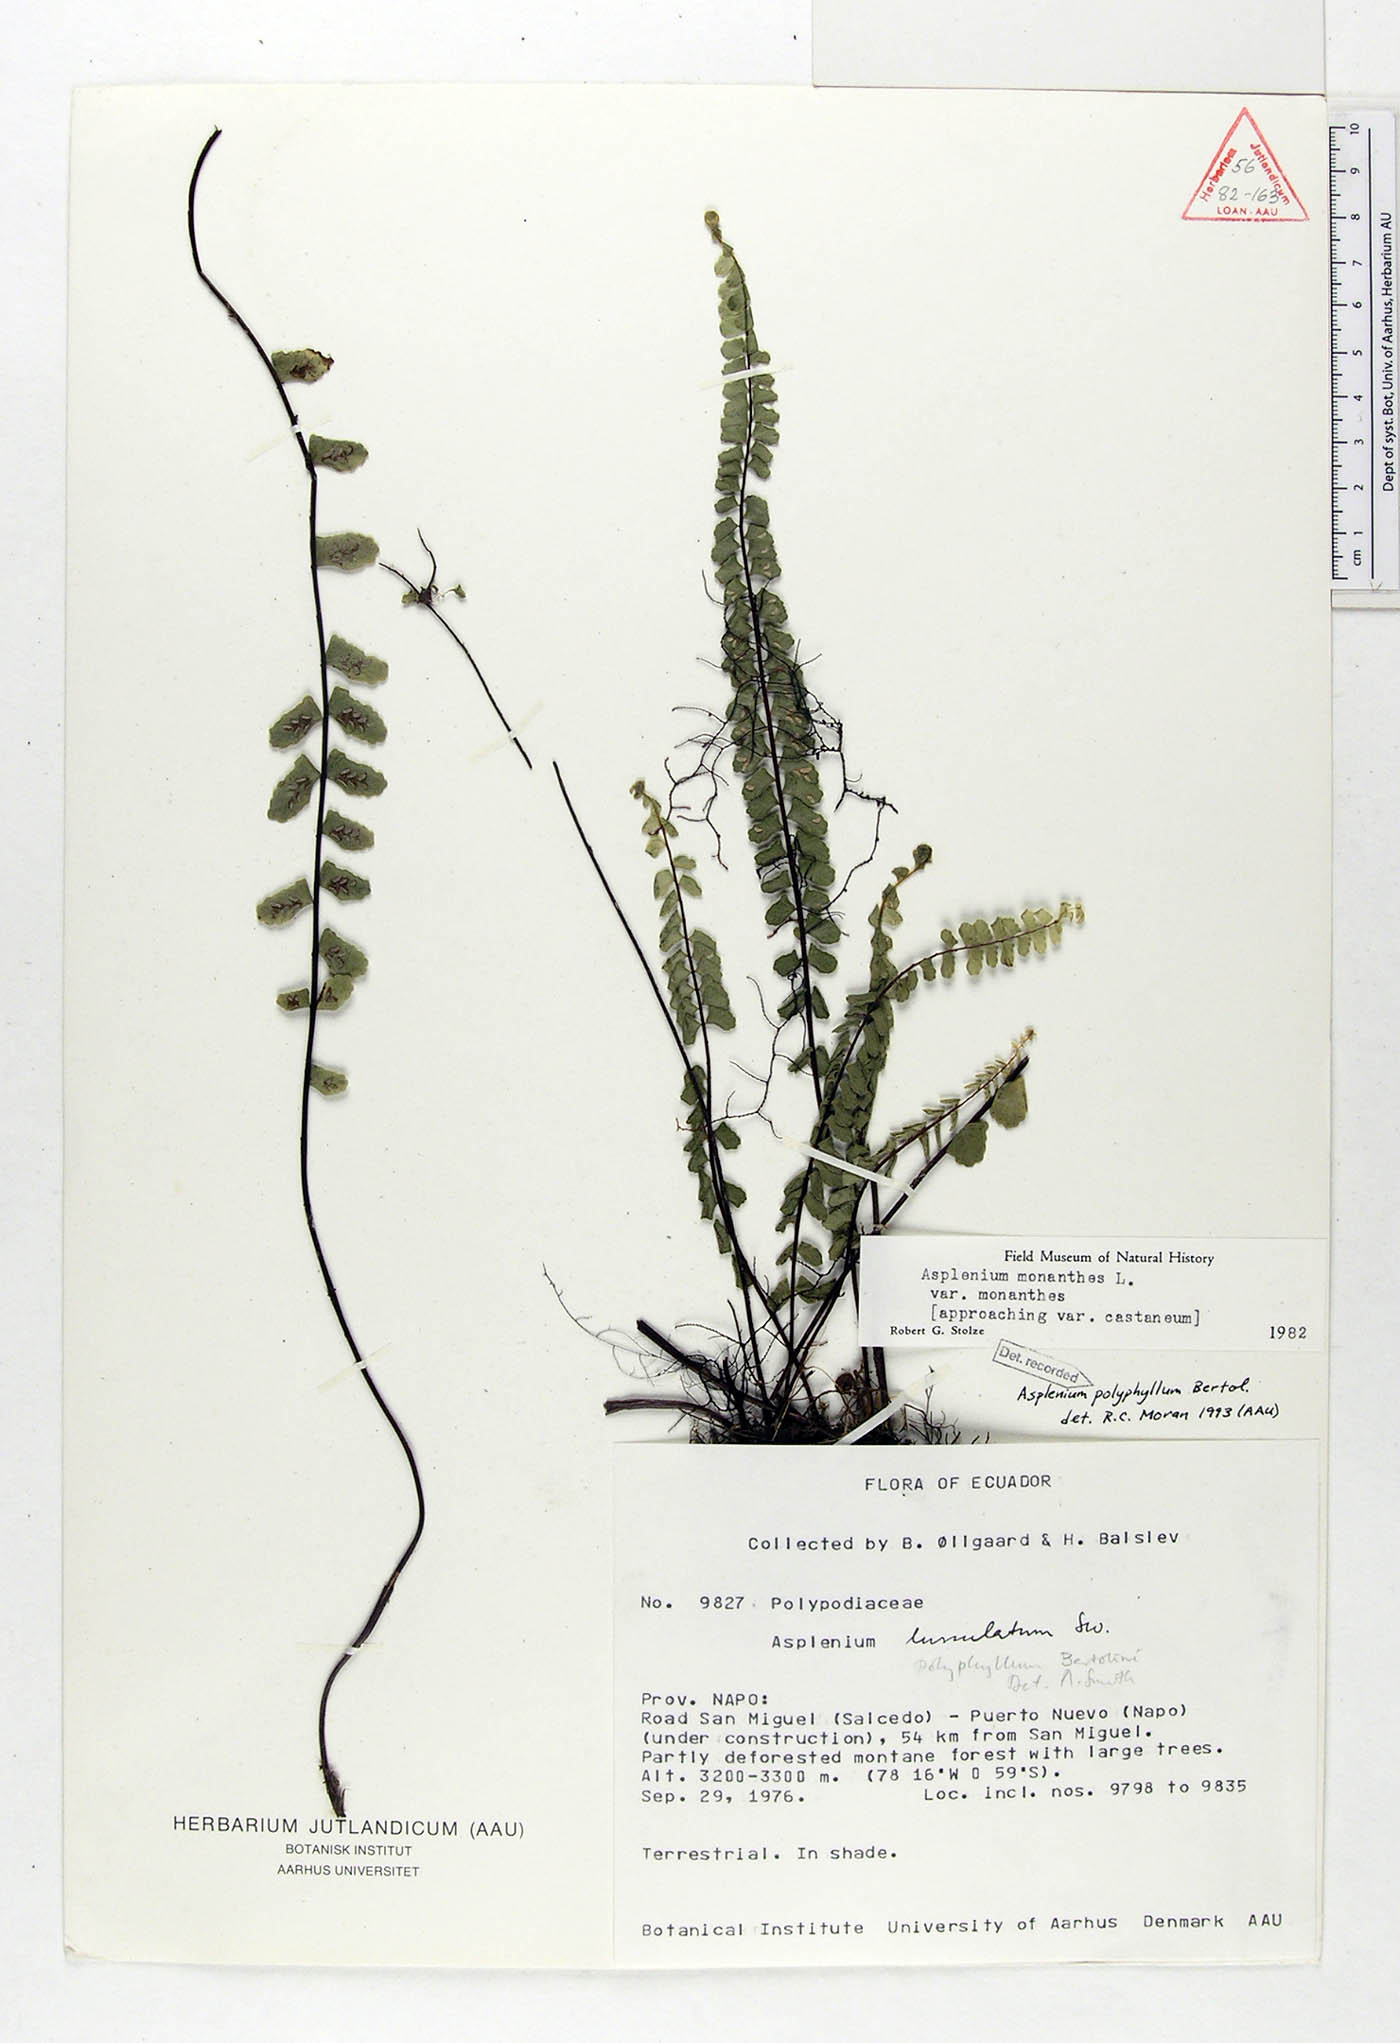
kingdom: Plantae
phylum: Tracheophyta
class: Polypodiopsida
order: Polypodiales
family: Aspleniaceae
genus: Asplenium
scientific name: Asplenium polyphyllum
